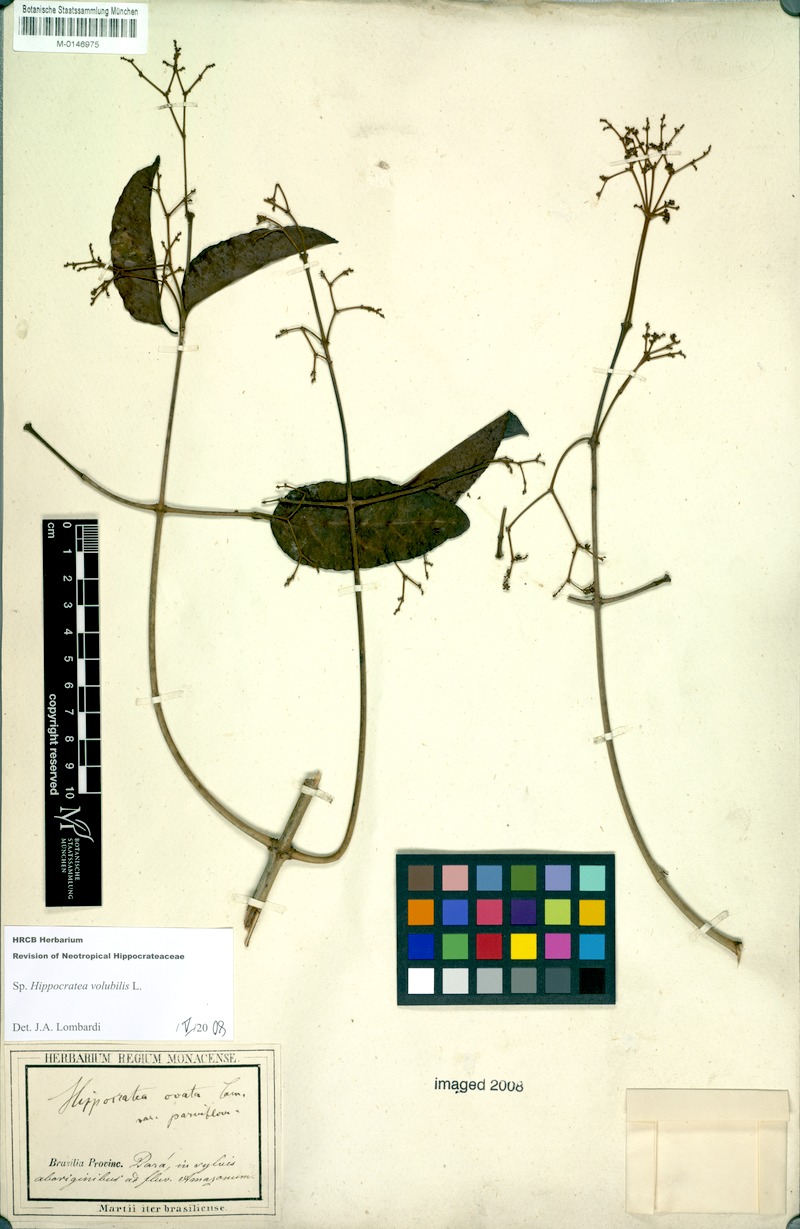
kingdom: Plantae
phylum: Tracheophyta
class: Magnoliopsida
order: Celastrales
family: Celastraceae
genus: Hippocratea
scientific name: Hippocratea volubilis
